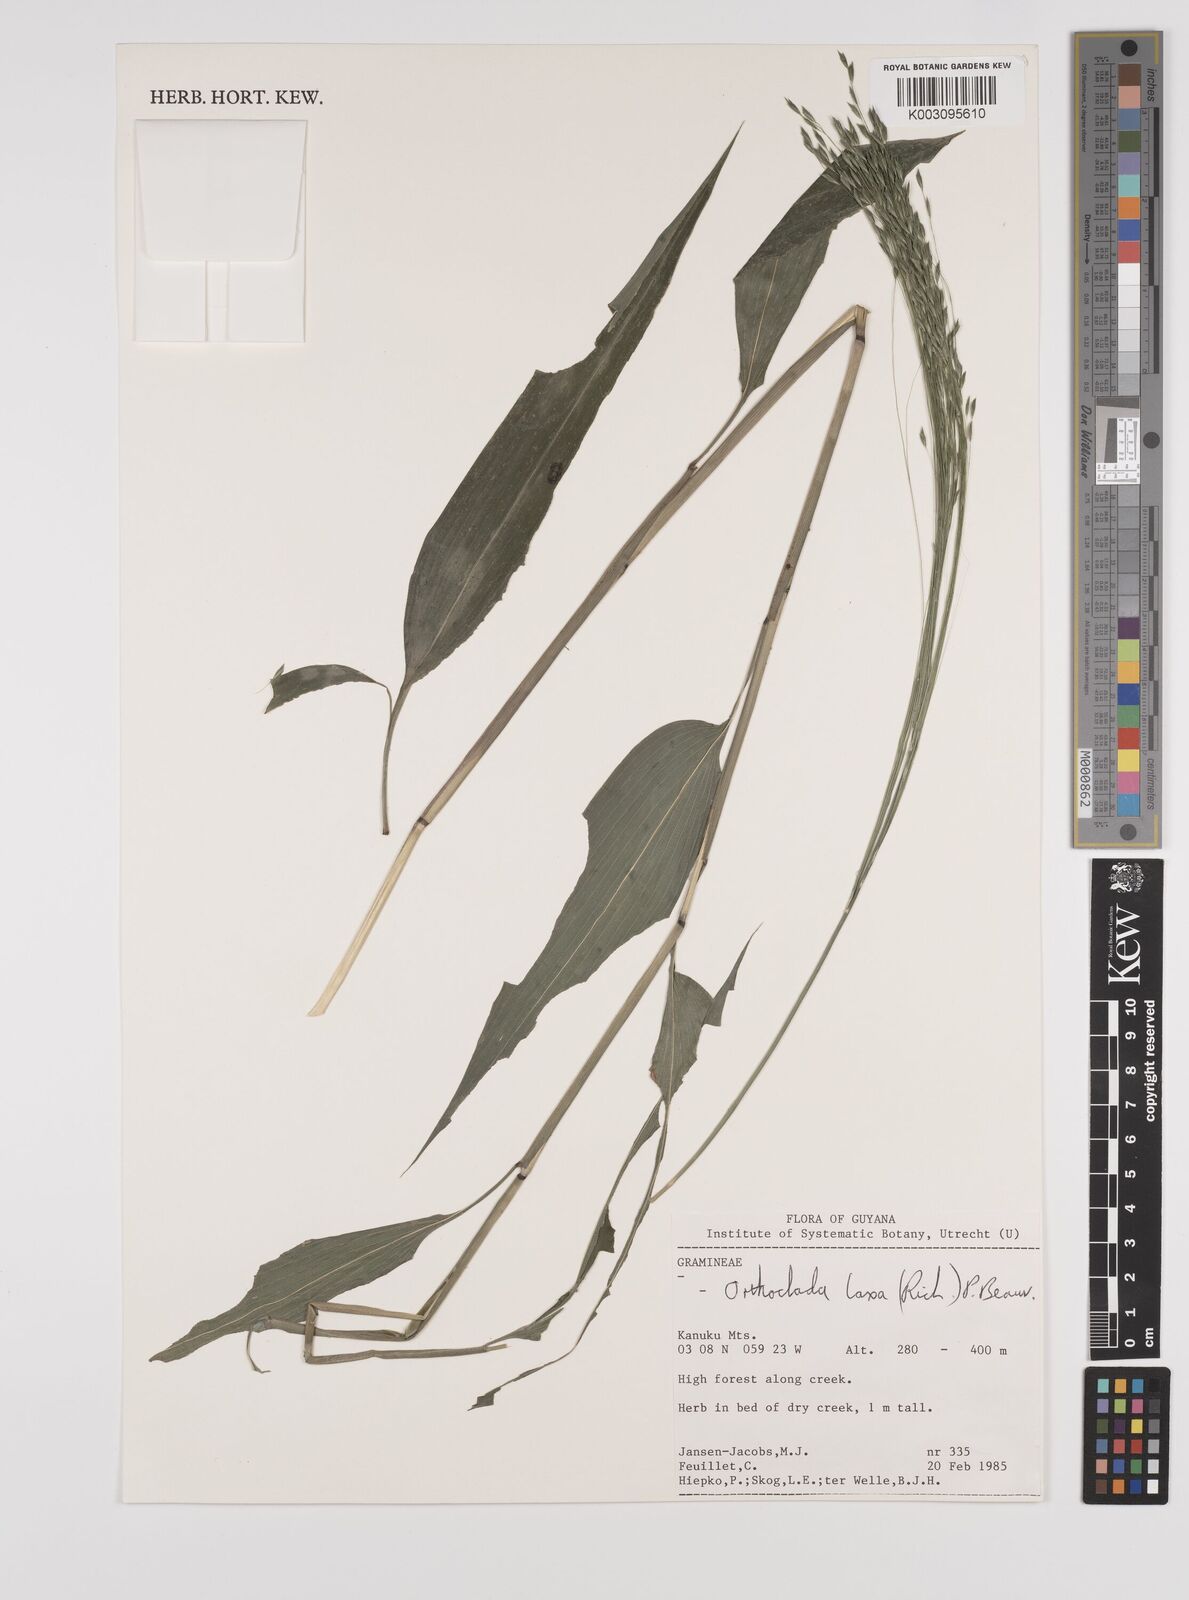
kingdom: Plantae
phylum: Tracheophyta
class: Liliopsida
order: Poales
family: Poaceae
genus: Orthoclada
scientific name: Orthoclada laxa
